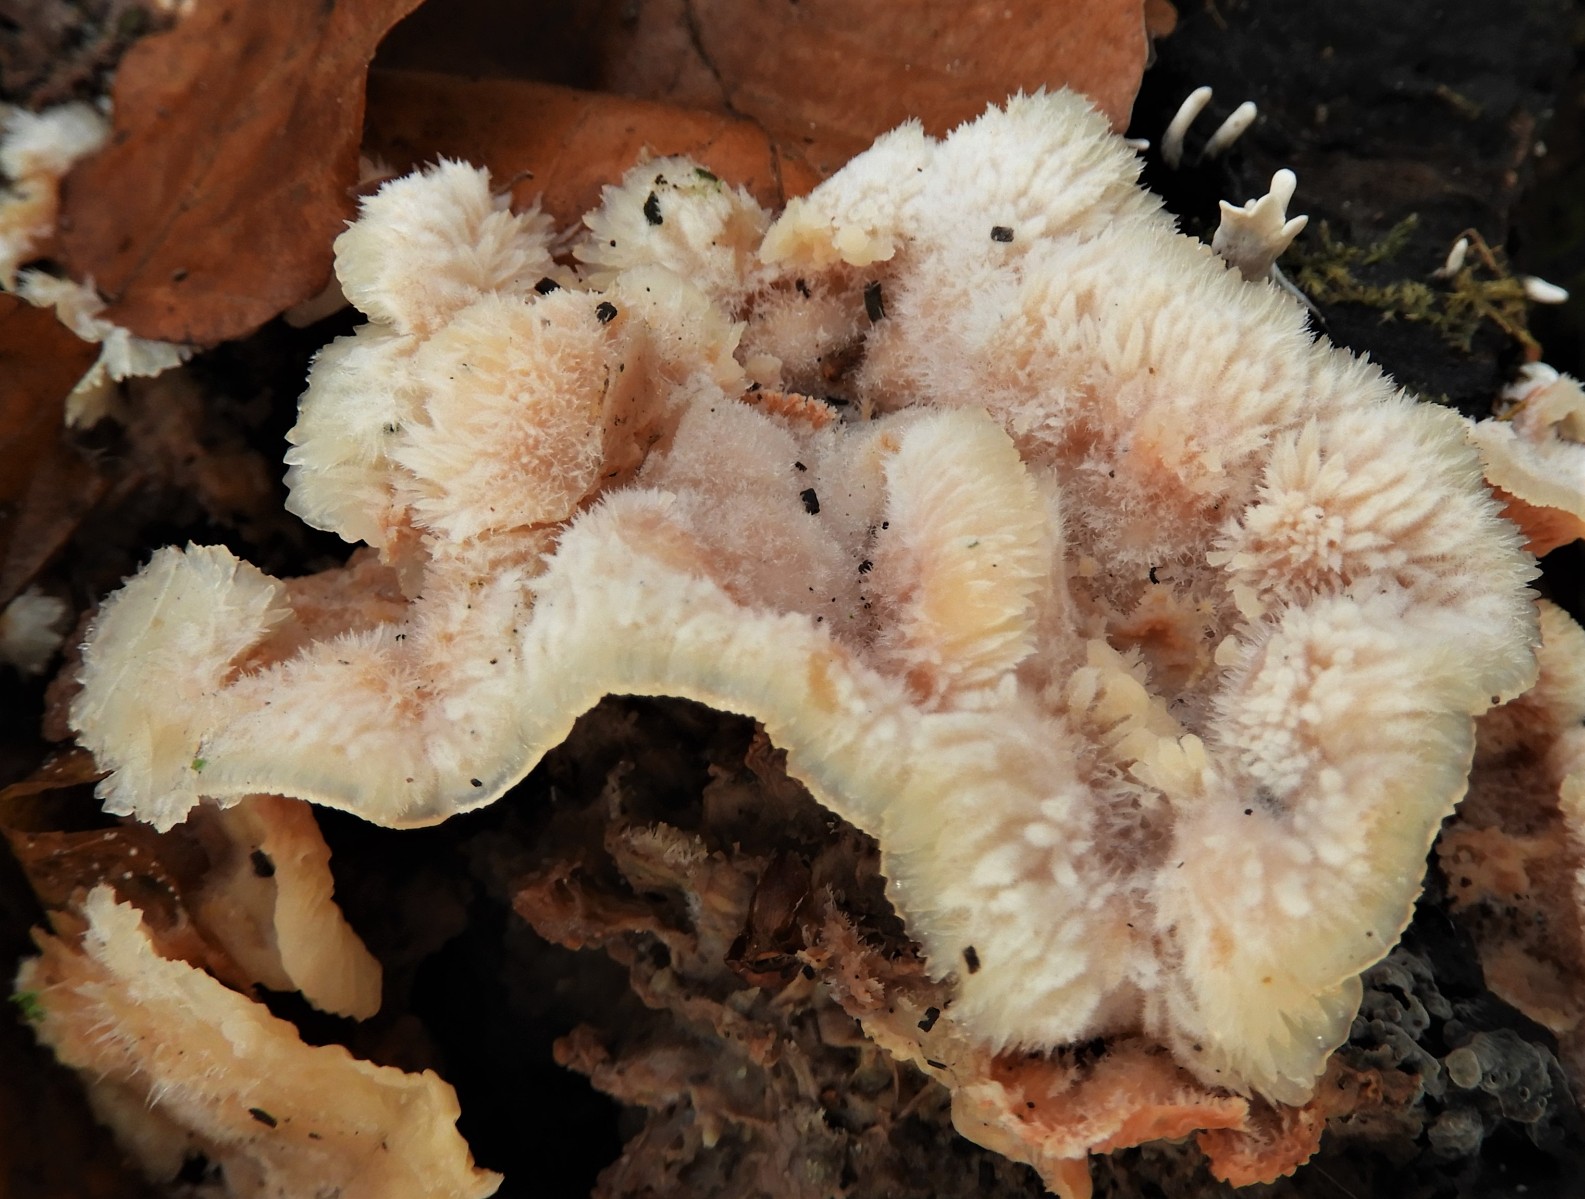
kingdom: Fungi
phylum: Basidiomycota
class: Agaricomycetes
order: Polyporales
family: Meruliaceae
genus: Phlebia
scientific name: Phlebia tremellosa
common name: bævrende åresvamp
